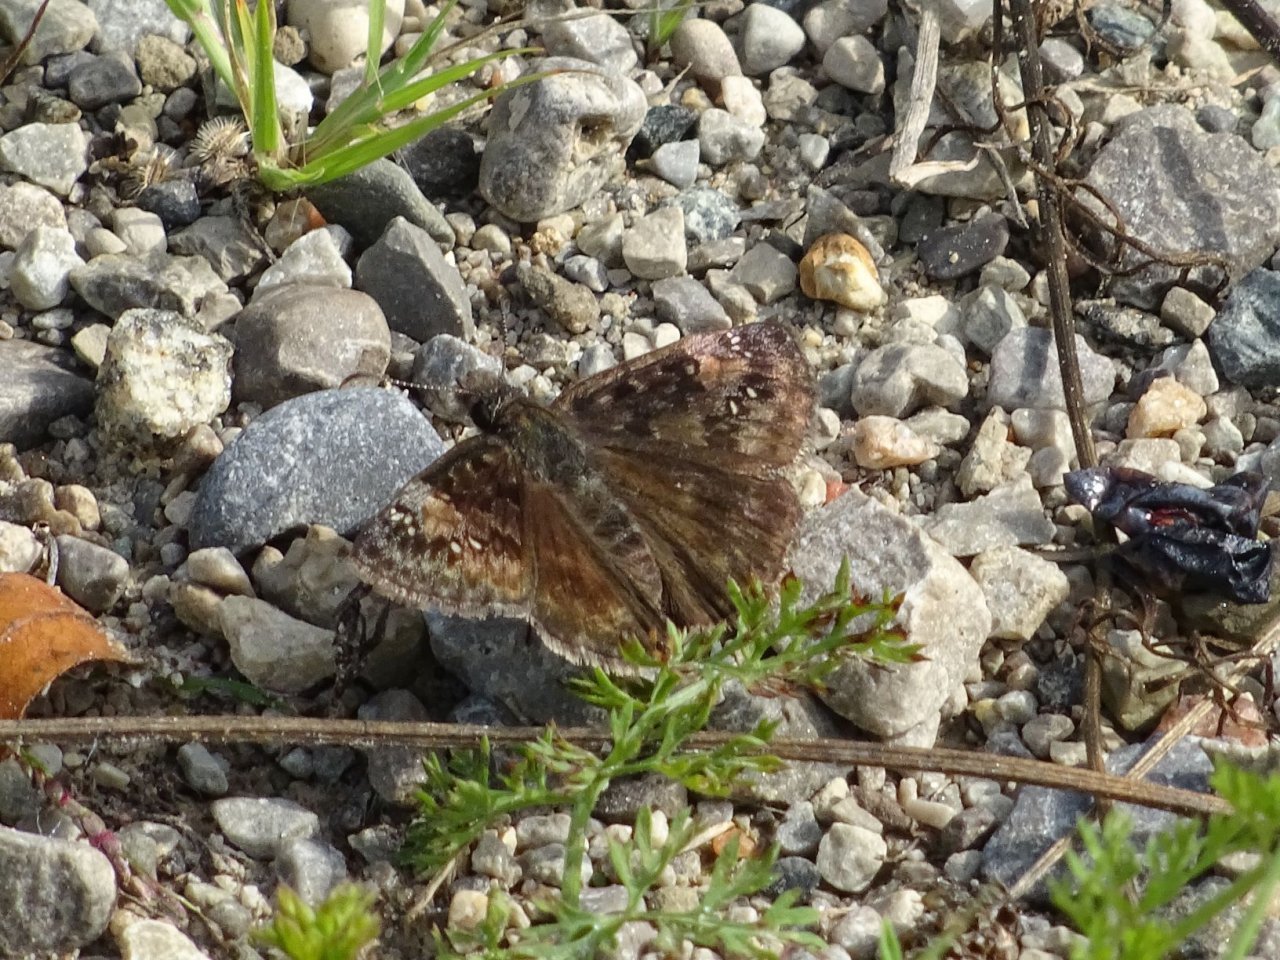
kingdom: Animalia
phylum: Arthropoda
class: Insecta
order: Lepidoptera
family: Hesperiidae
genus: Gesta
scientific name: Gesta
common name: Wild Indigo Duskywing
